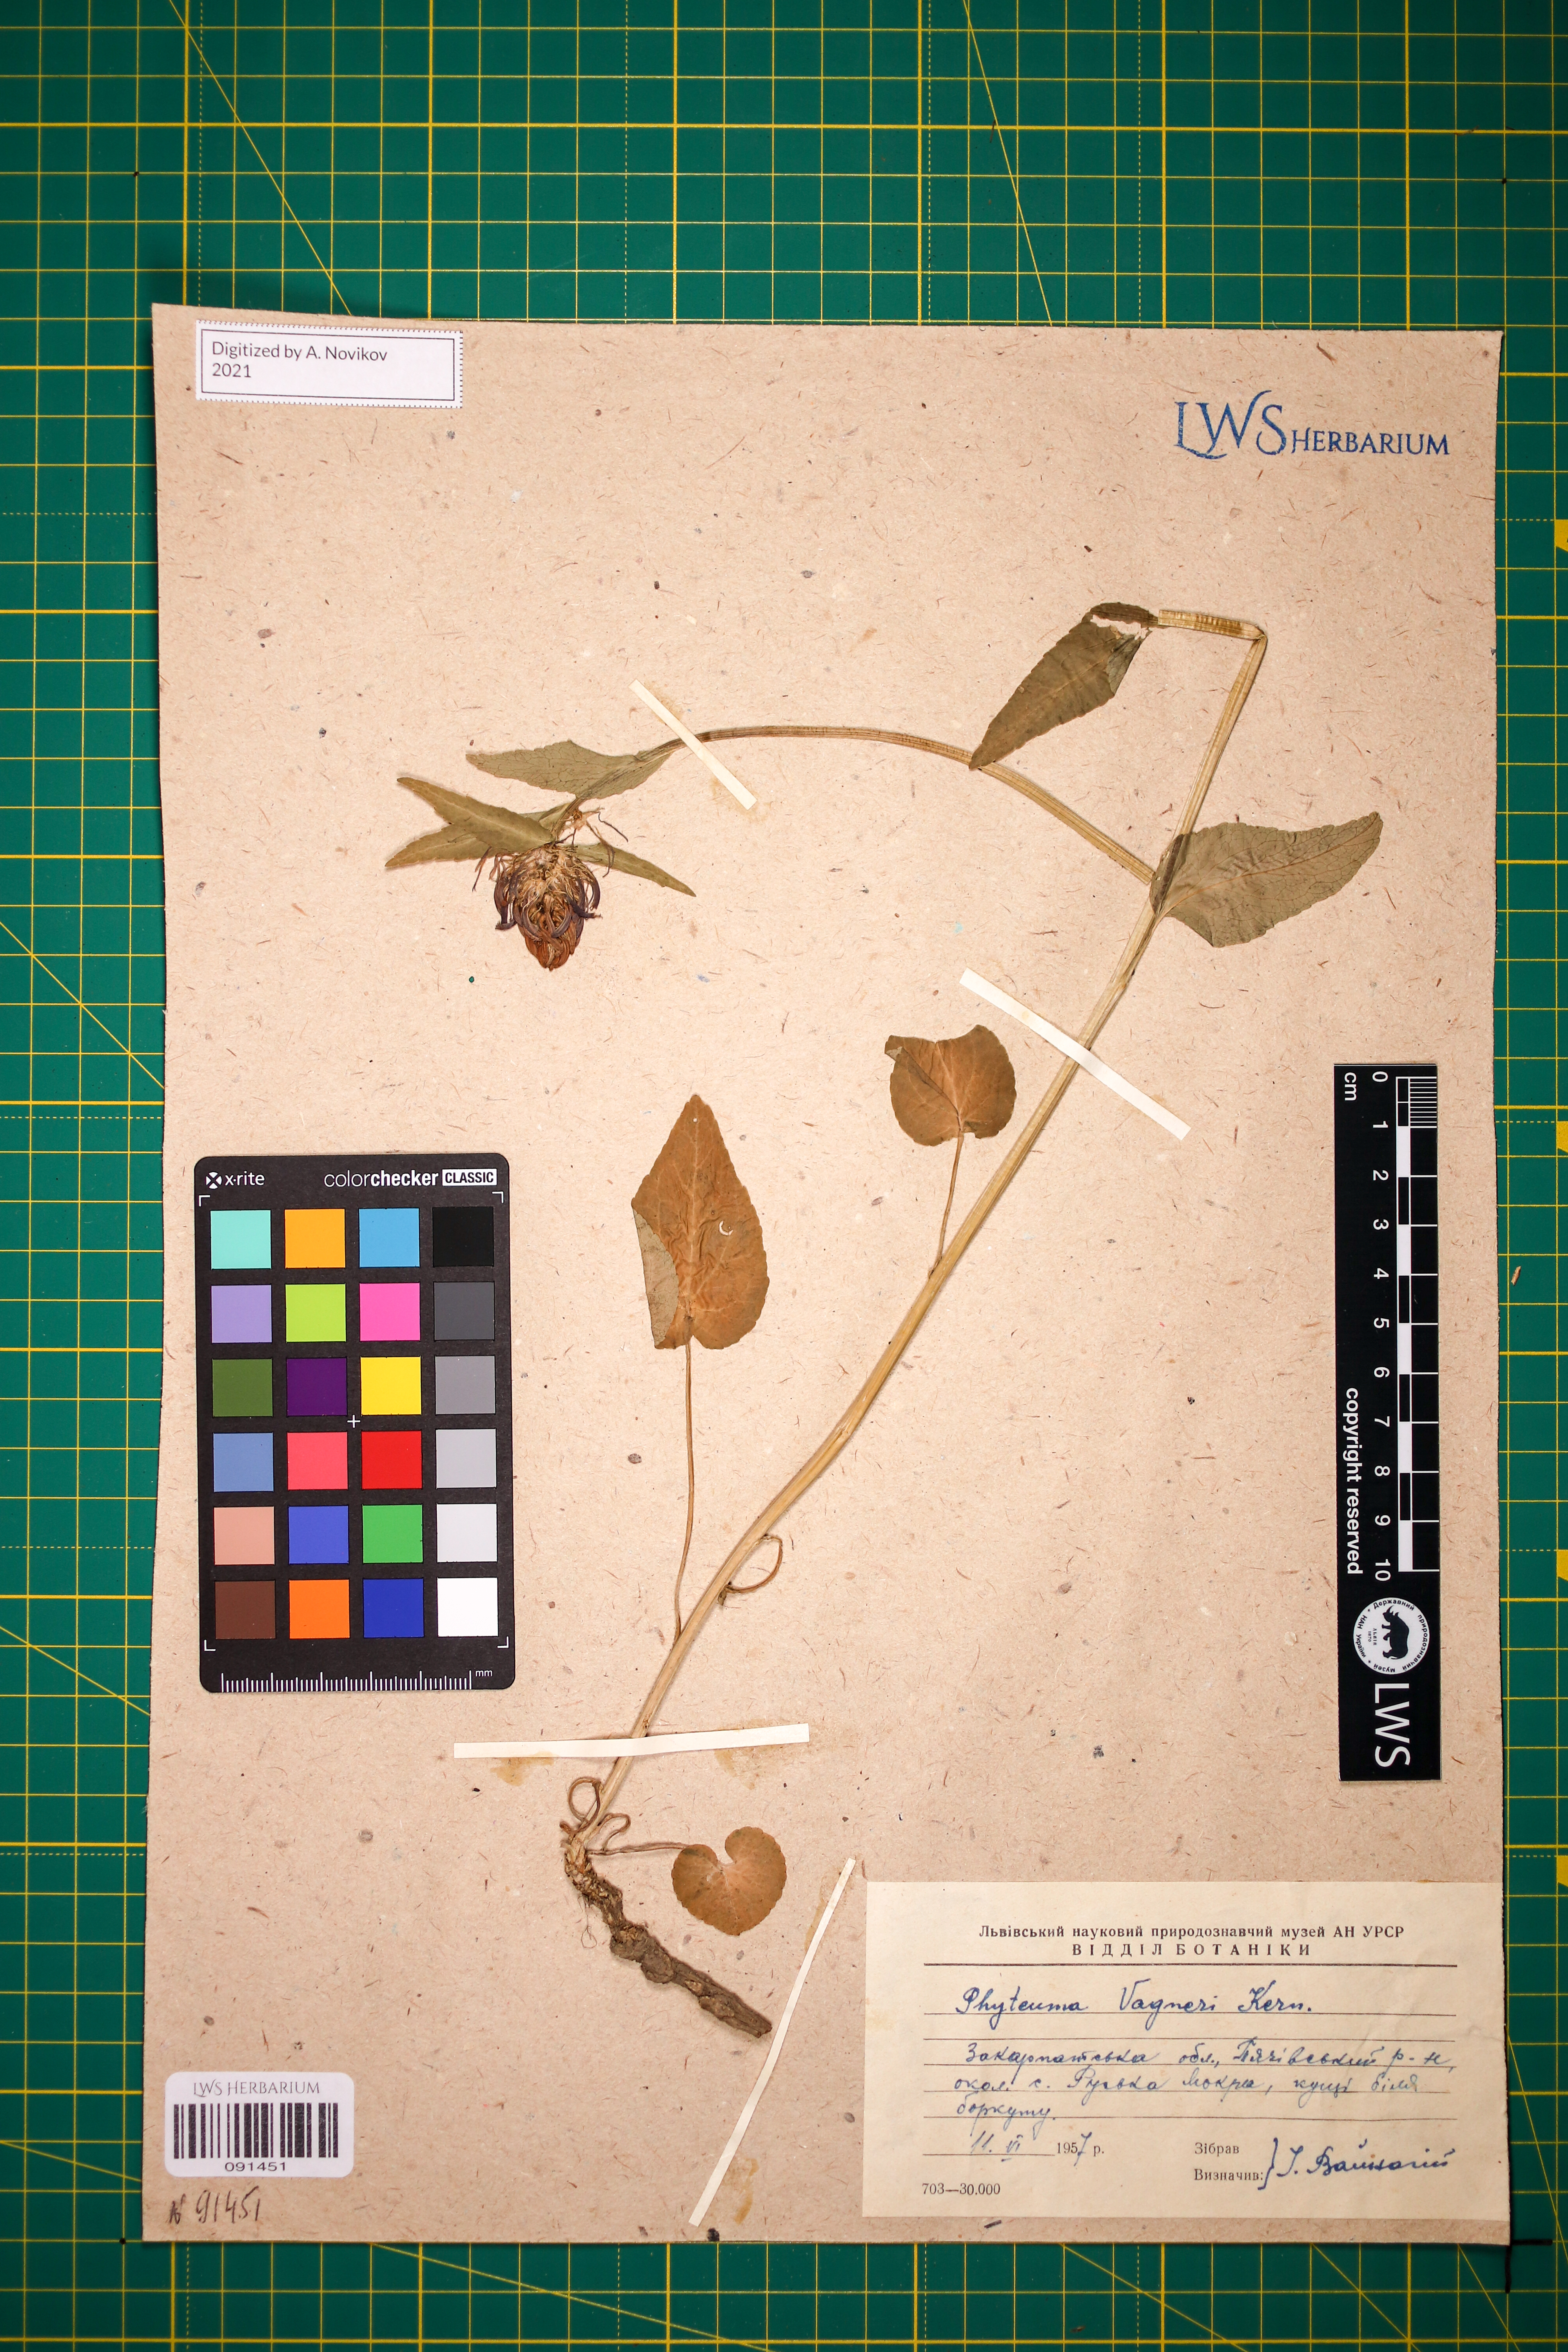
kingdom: Plantae
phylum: Tracheophyta
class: Magnoliopsida
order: Asterales
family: Campanulaceae
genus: Phyteuma
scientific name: Phyteuma vagneri
